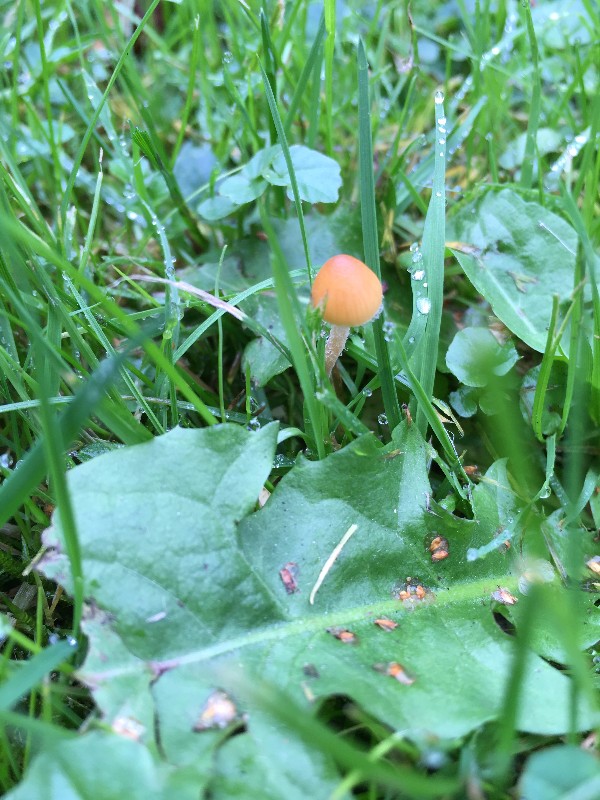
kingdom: Fungi
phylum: Basidiomycota
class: Agaricomycetes
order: Agaricales
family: Hymenogastraceae
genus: Galerina
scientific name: Galerina clavata
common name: kær-hjelmhat
